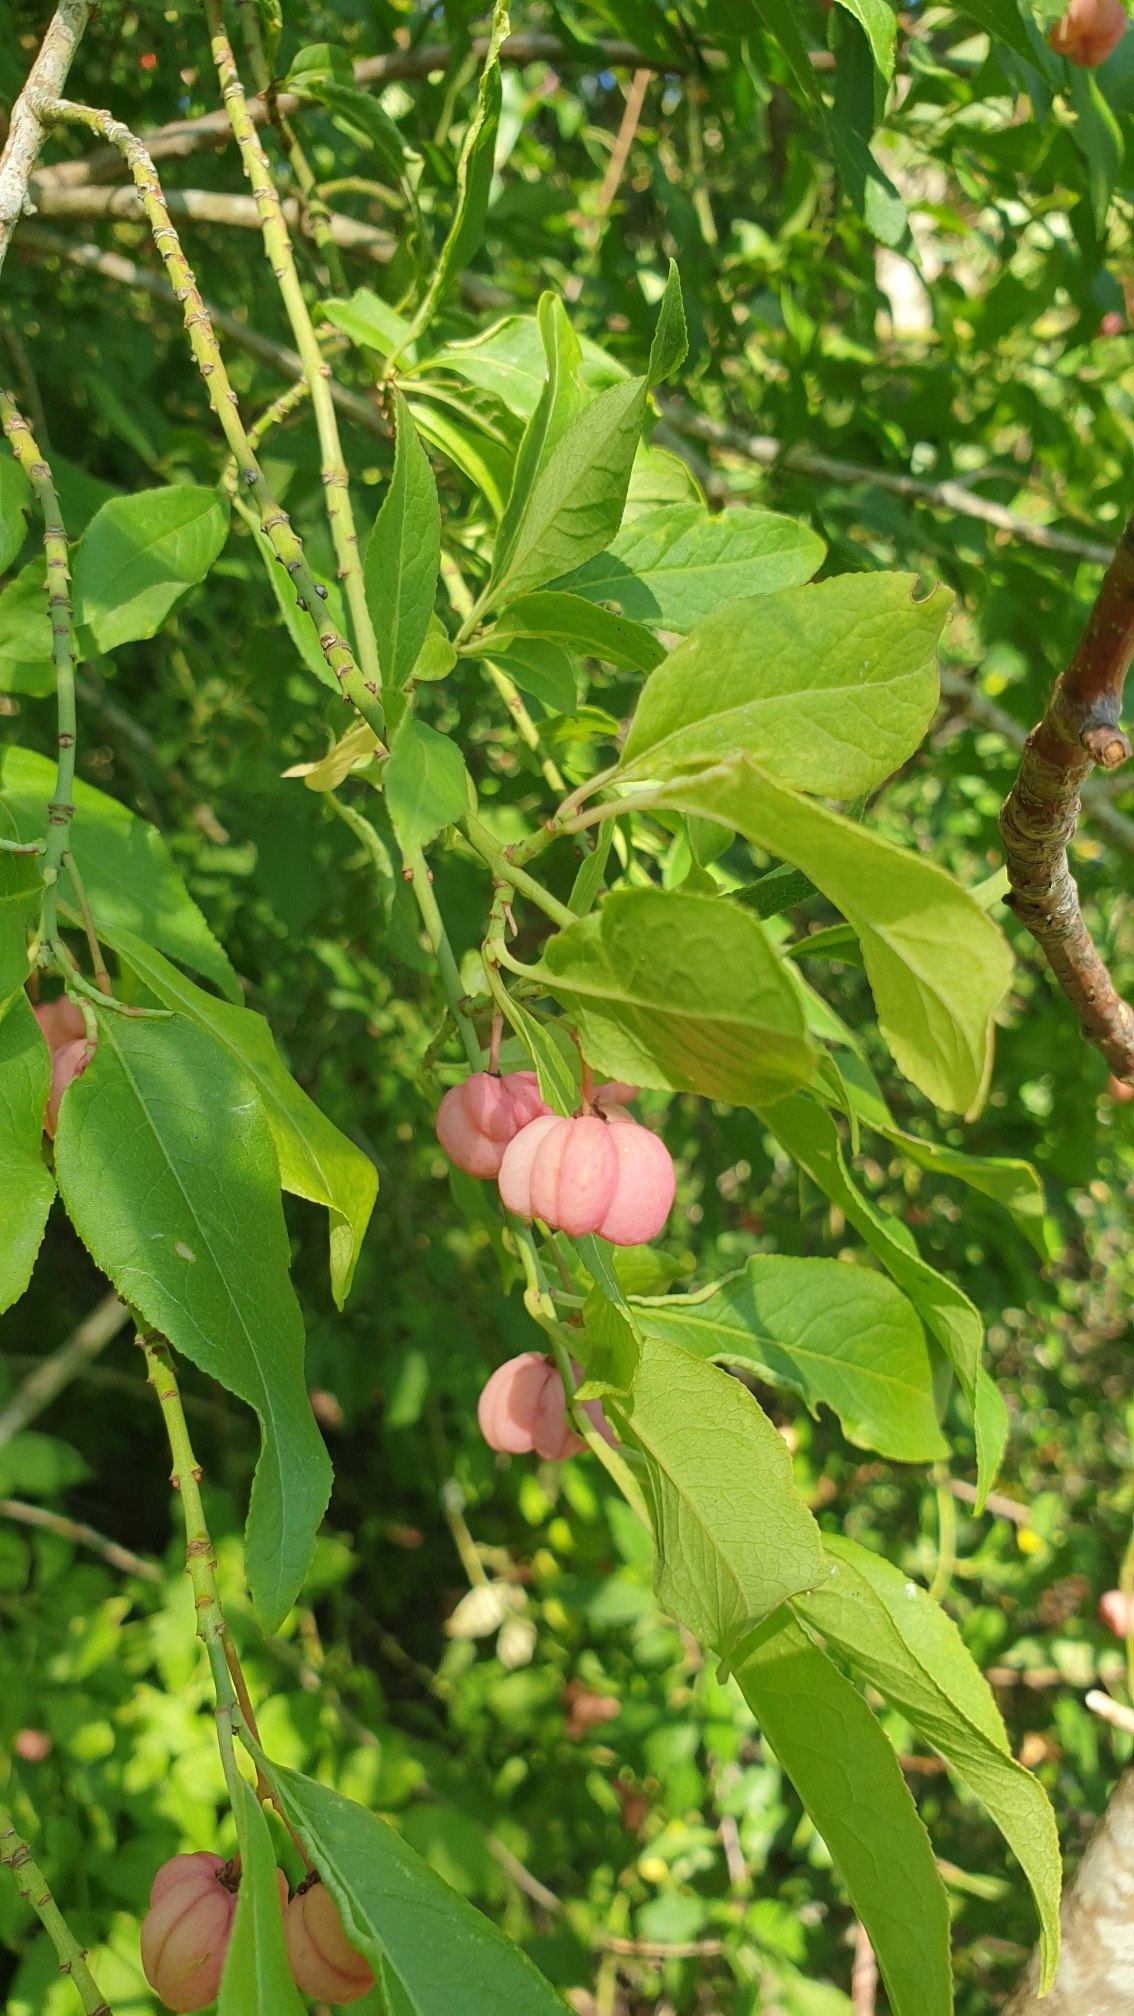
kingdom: Plantae
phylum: Tracheophyta
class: Magnoliopsida
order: Celastrales
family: Celastraceae
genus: Euonymus
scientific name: Euonymus europaeus
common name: Benved
